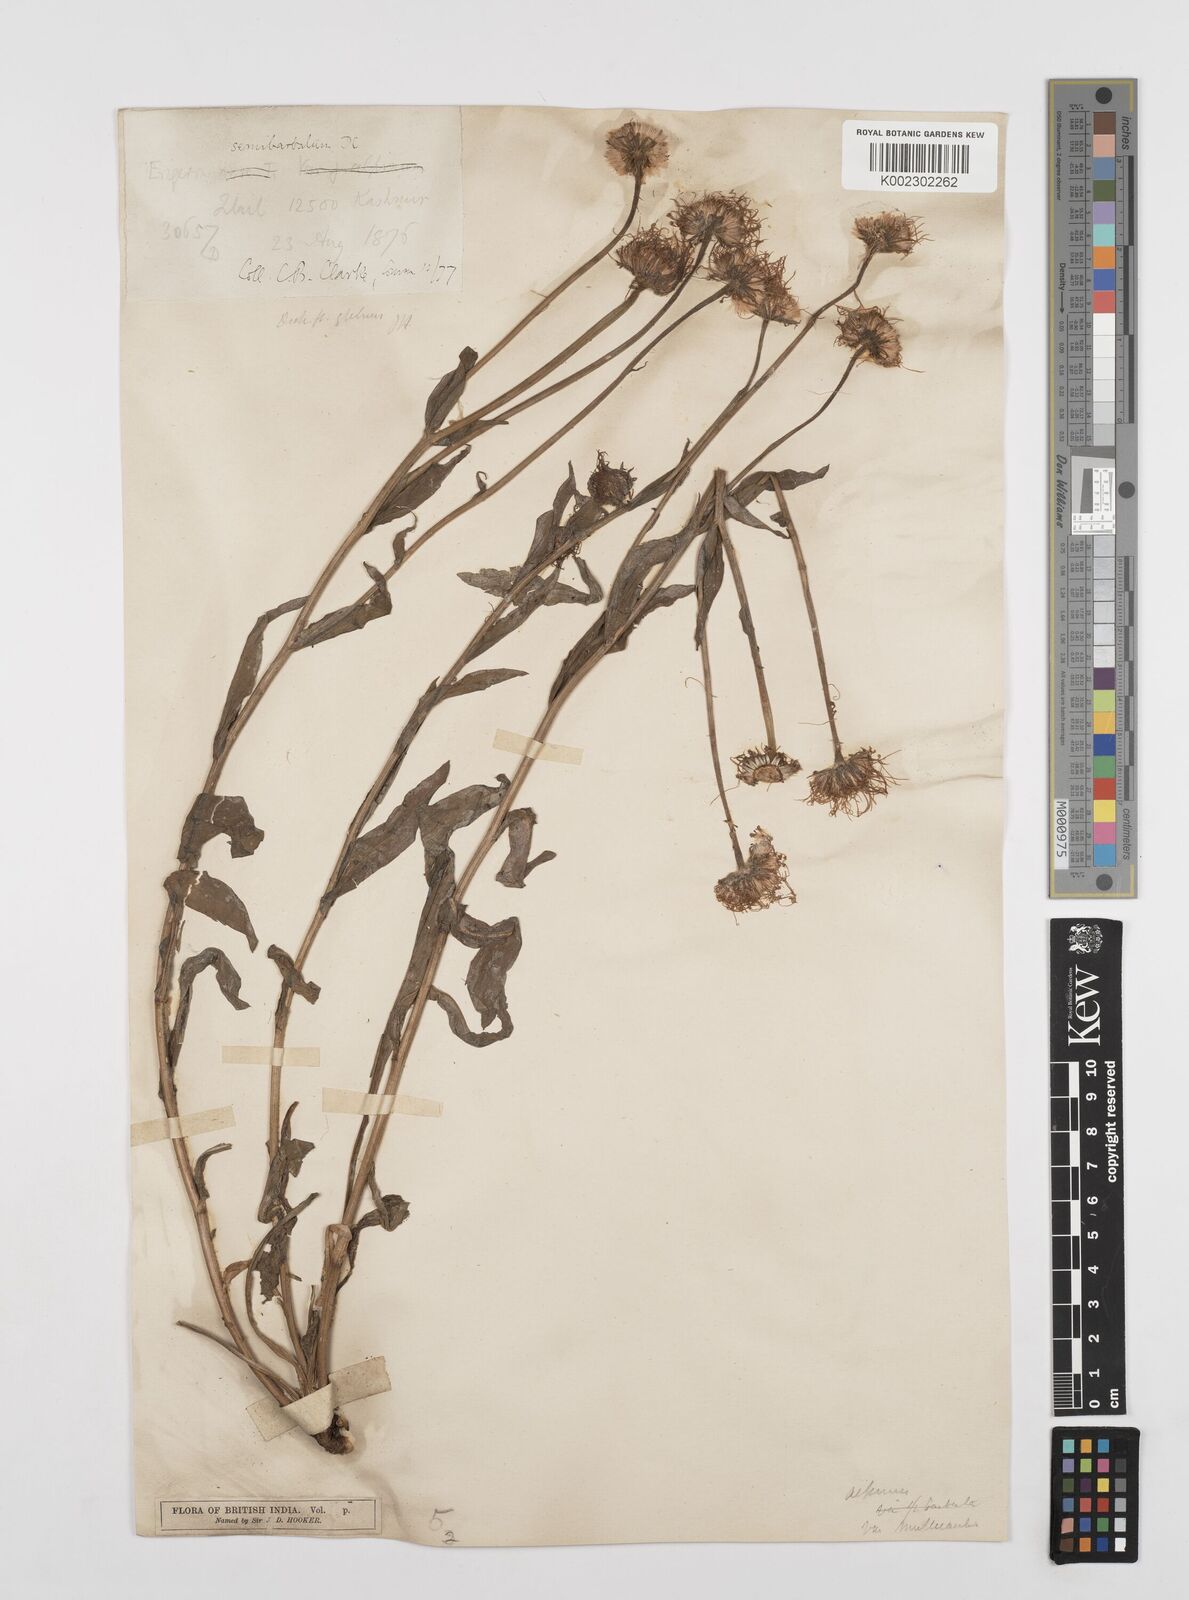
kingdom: Plantae
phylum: Tracheophyta
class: Magnoliopsida
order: Asterales
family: Asteraceae
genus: Erigeron
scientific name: Erigeron multiradiatus
